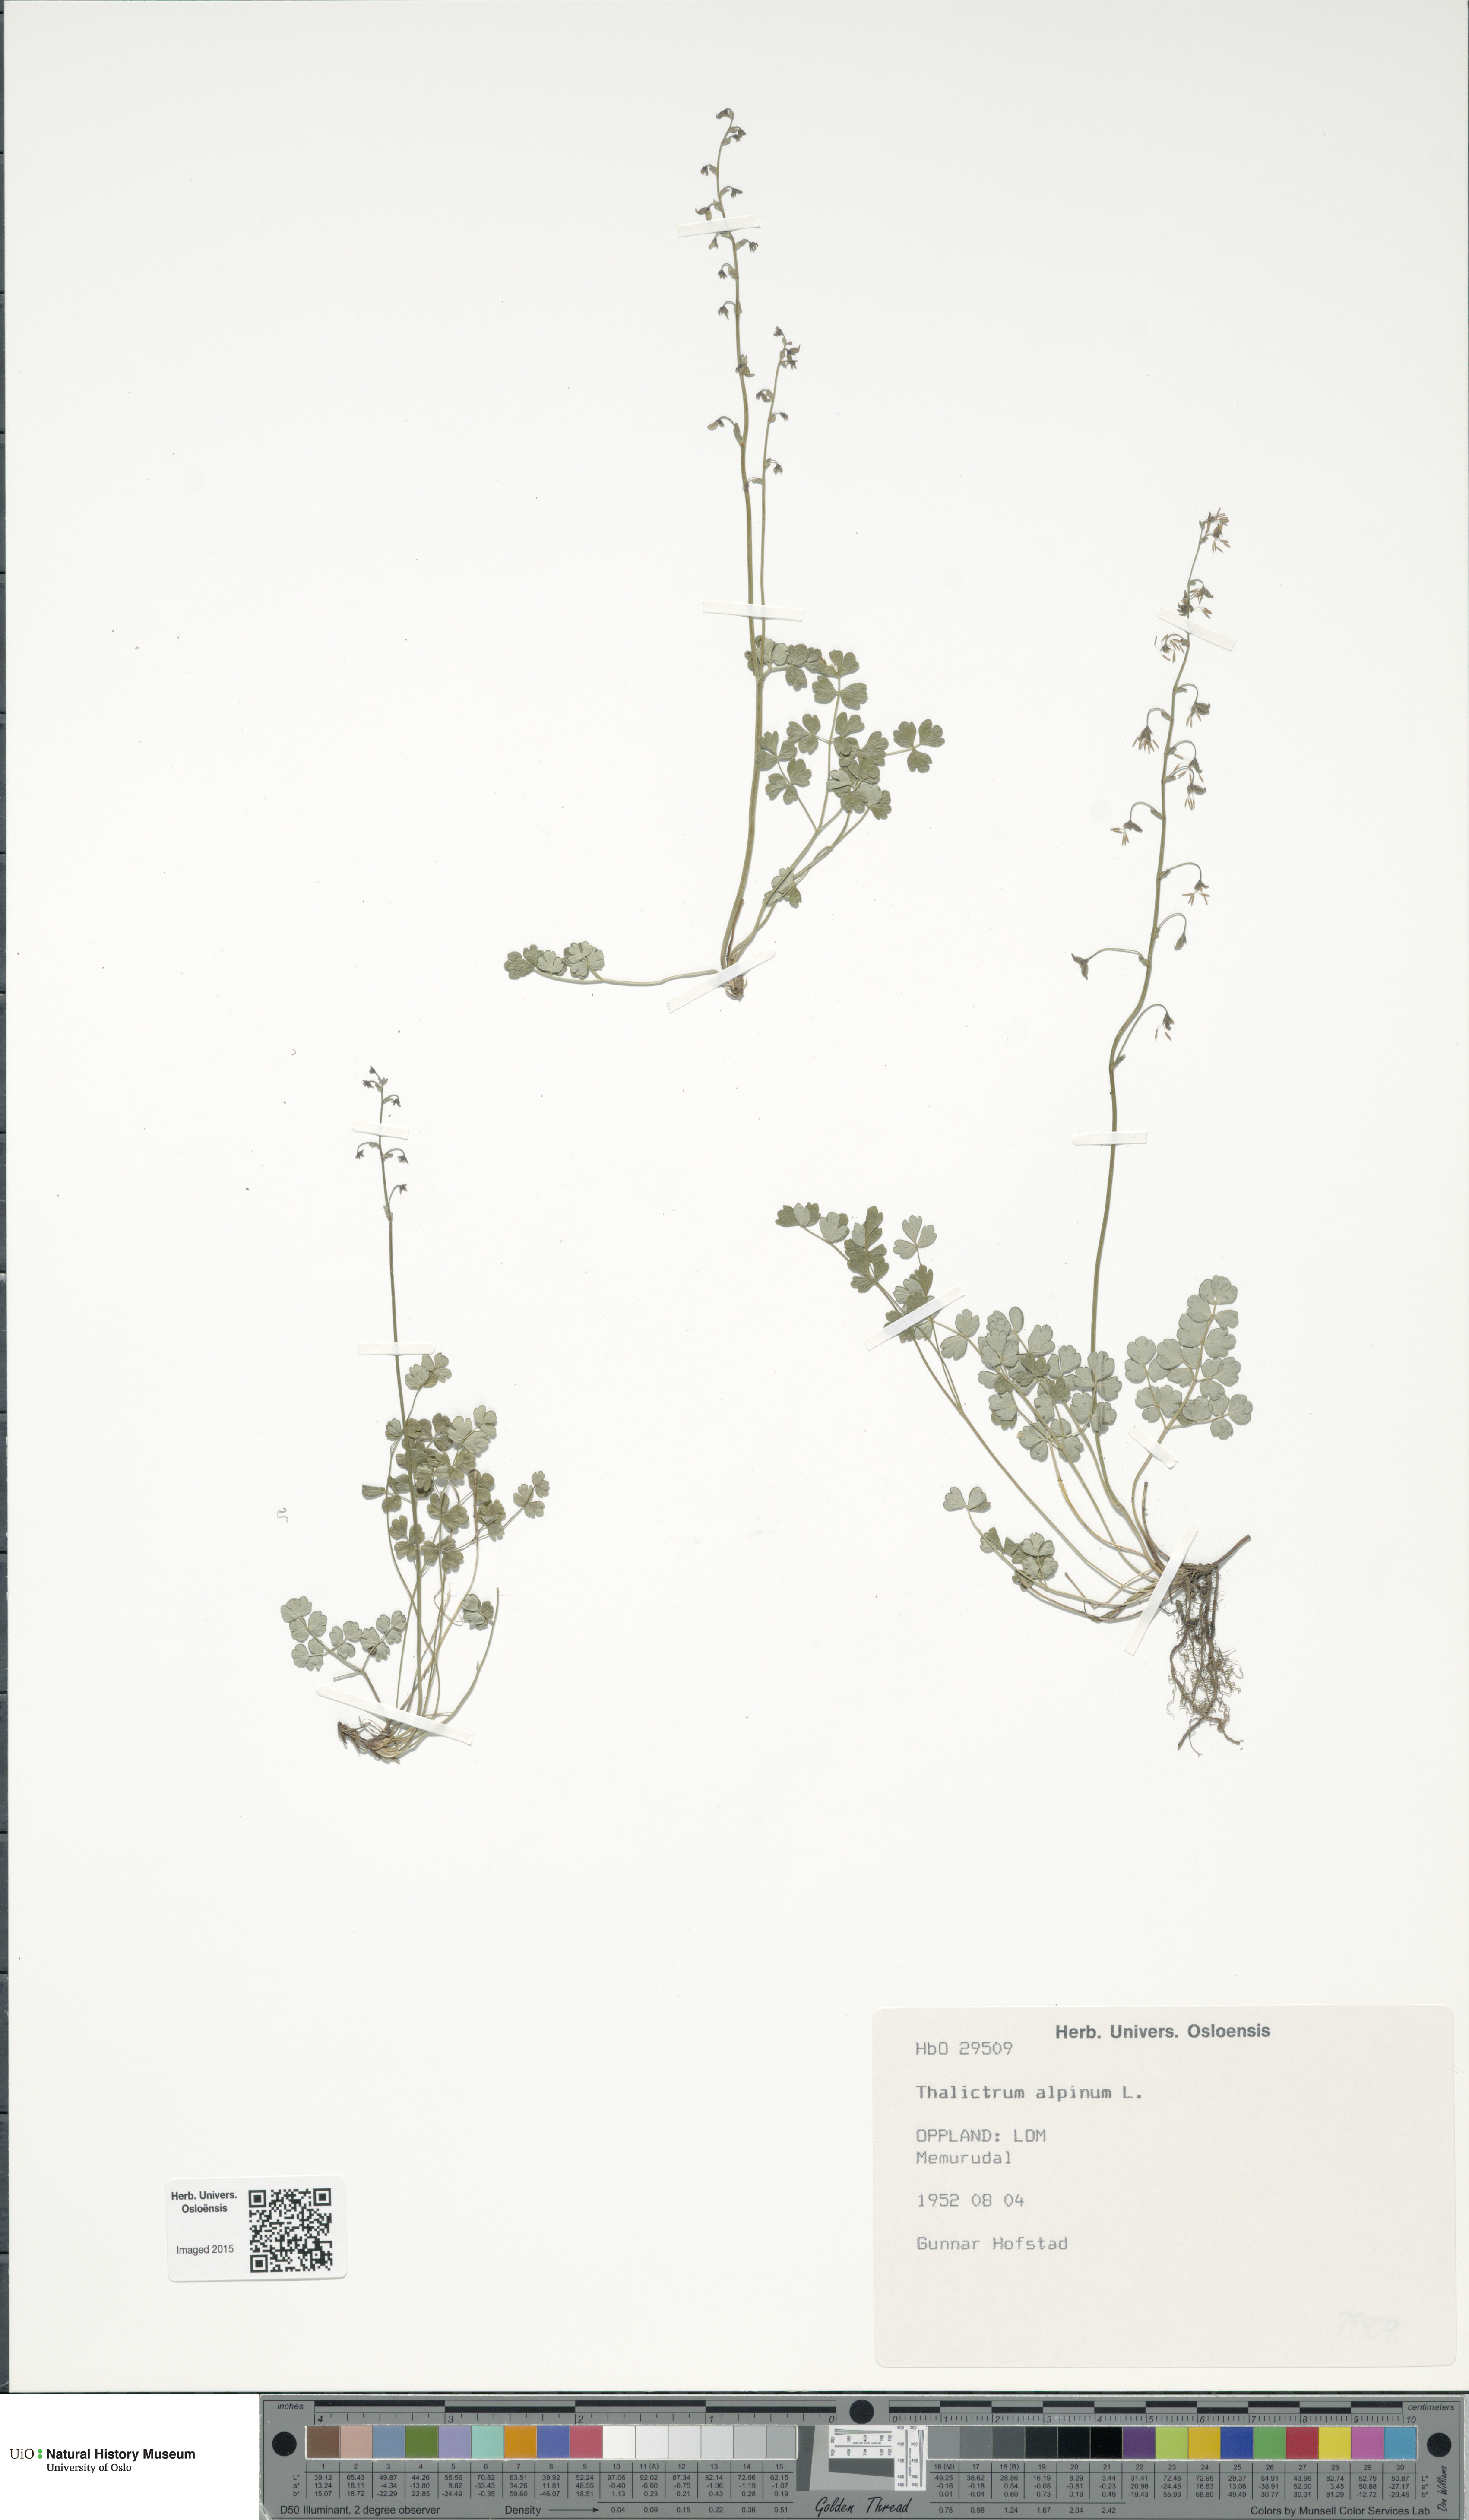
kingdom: Plantae
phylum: Tracheophyta
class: Magnoliopsida
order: Ranunculales
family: Ranunculaceae
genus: Thalictrum
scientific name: Thalictrum alpinum
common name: Alpine meadow-rue
